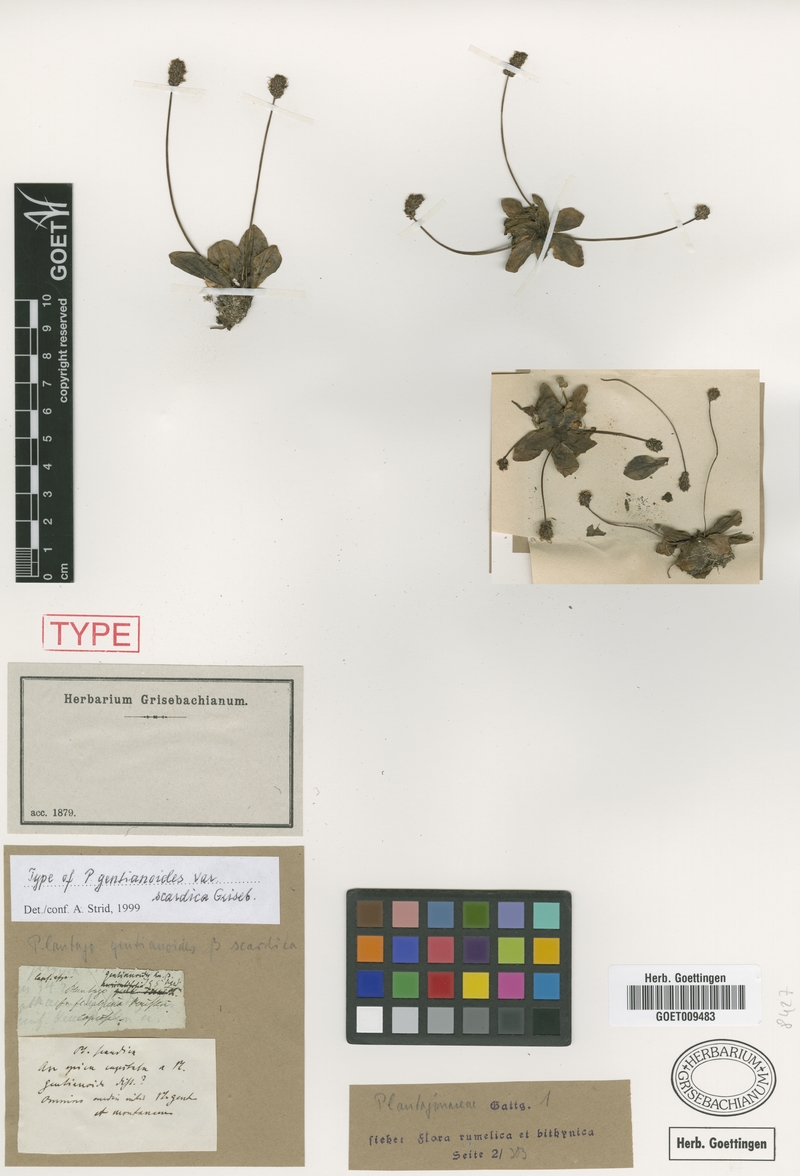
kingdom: Plantae
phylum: Tracheophyta
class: Magnoliopsida
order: Lamiales
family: Plantaginaceae
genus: Plantago
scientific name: Plantago gentianoides
